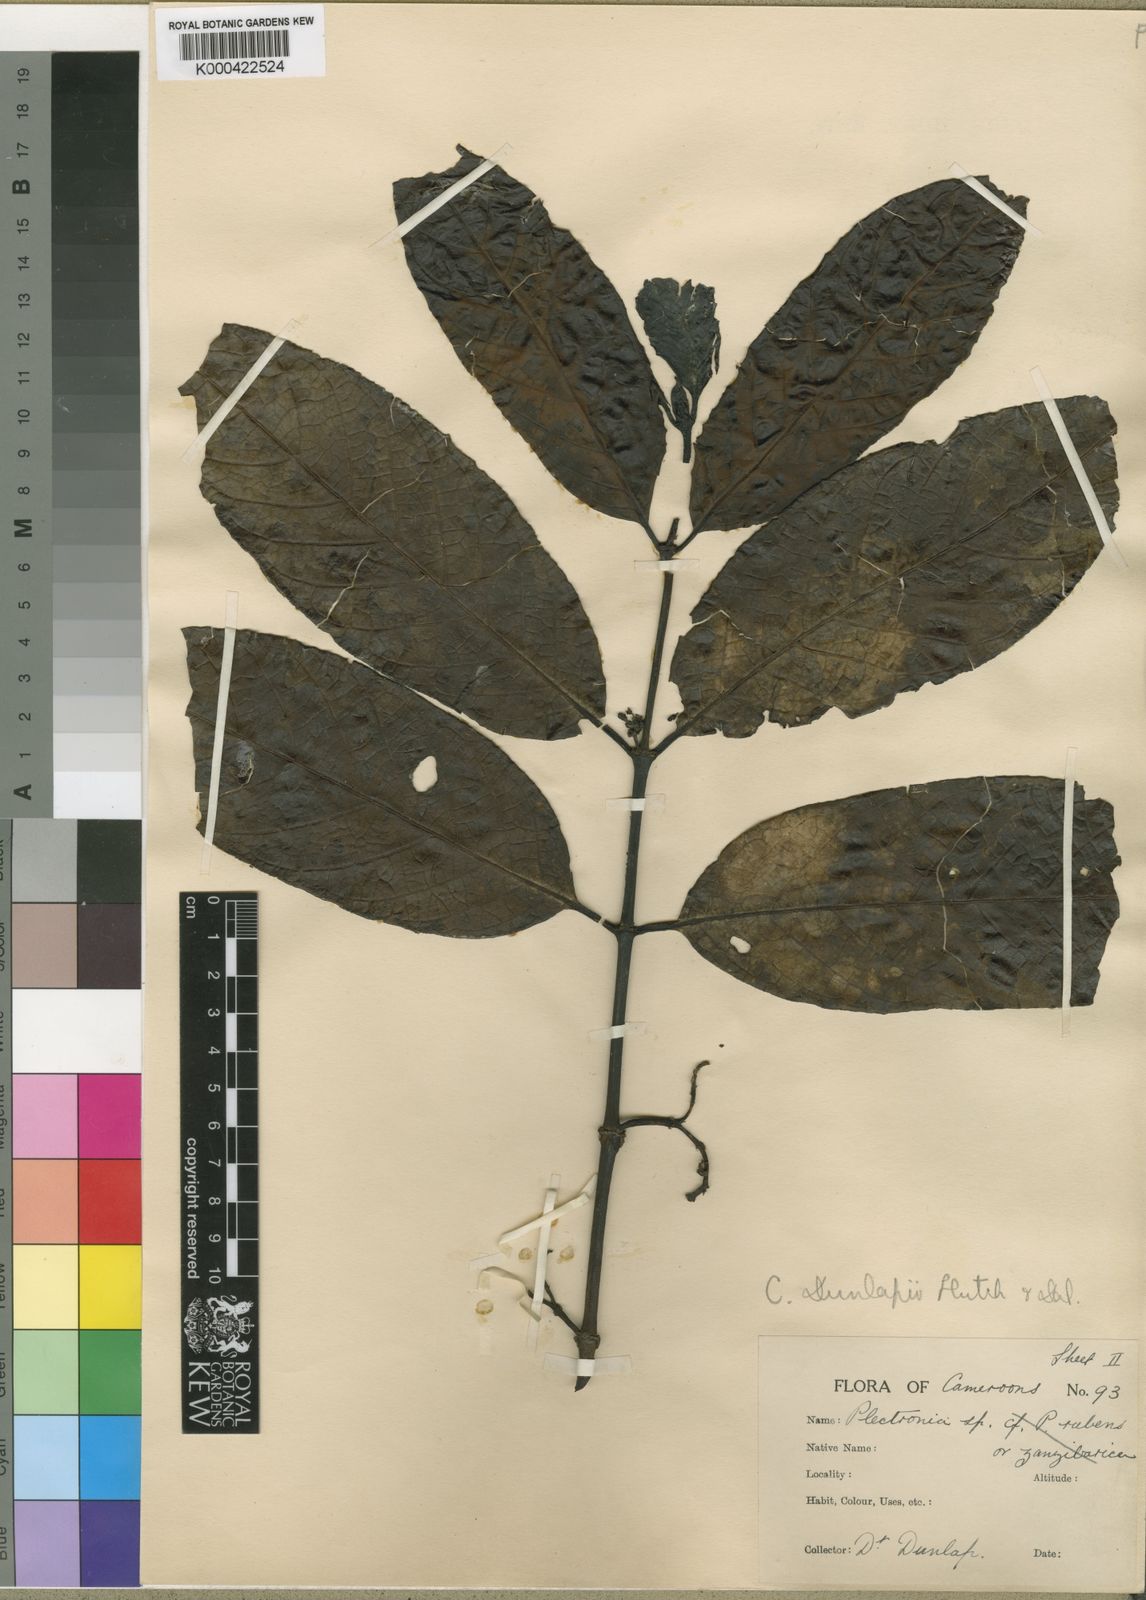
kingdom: Plantae
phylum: Tracheophyta
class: Magnoliopsida
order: Gentianales
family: Rubiaceae
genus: Psydrax
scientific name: Psydrax dunlapii
